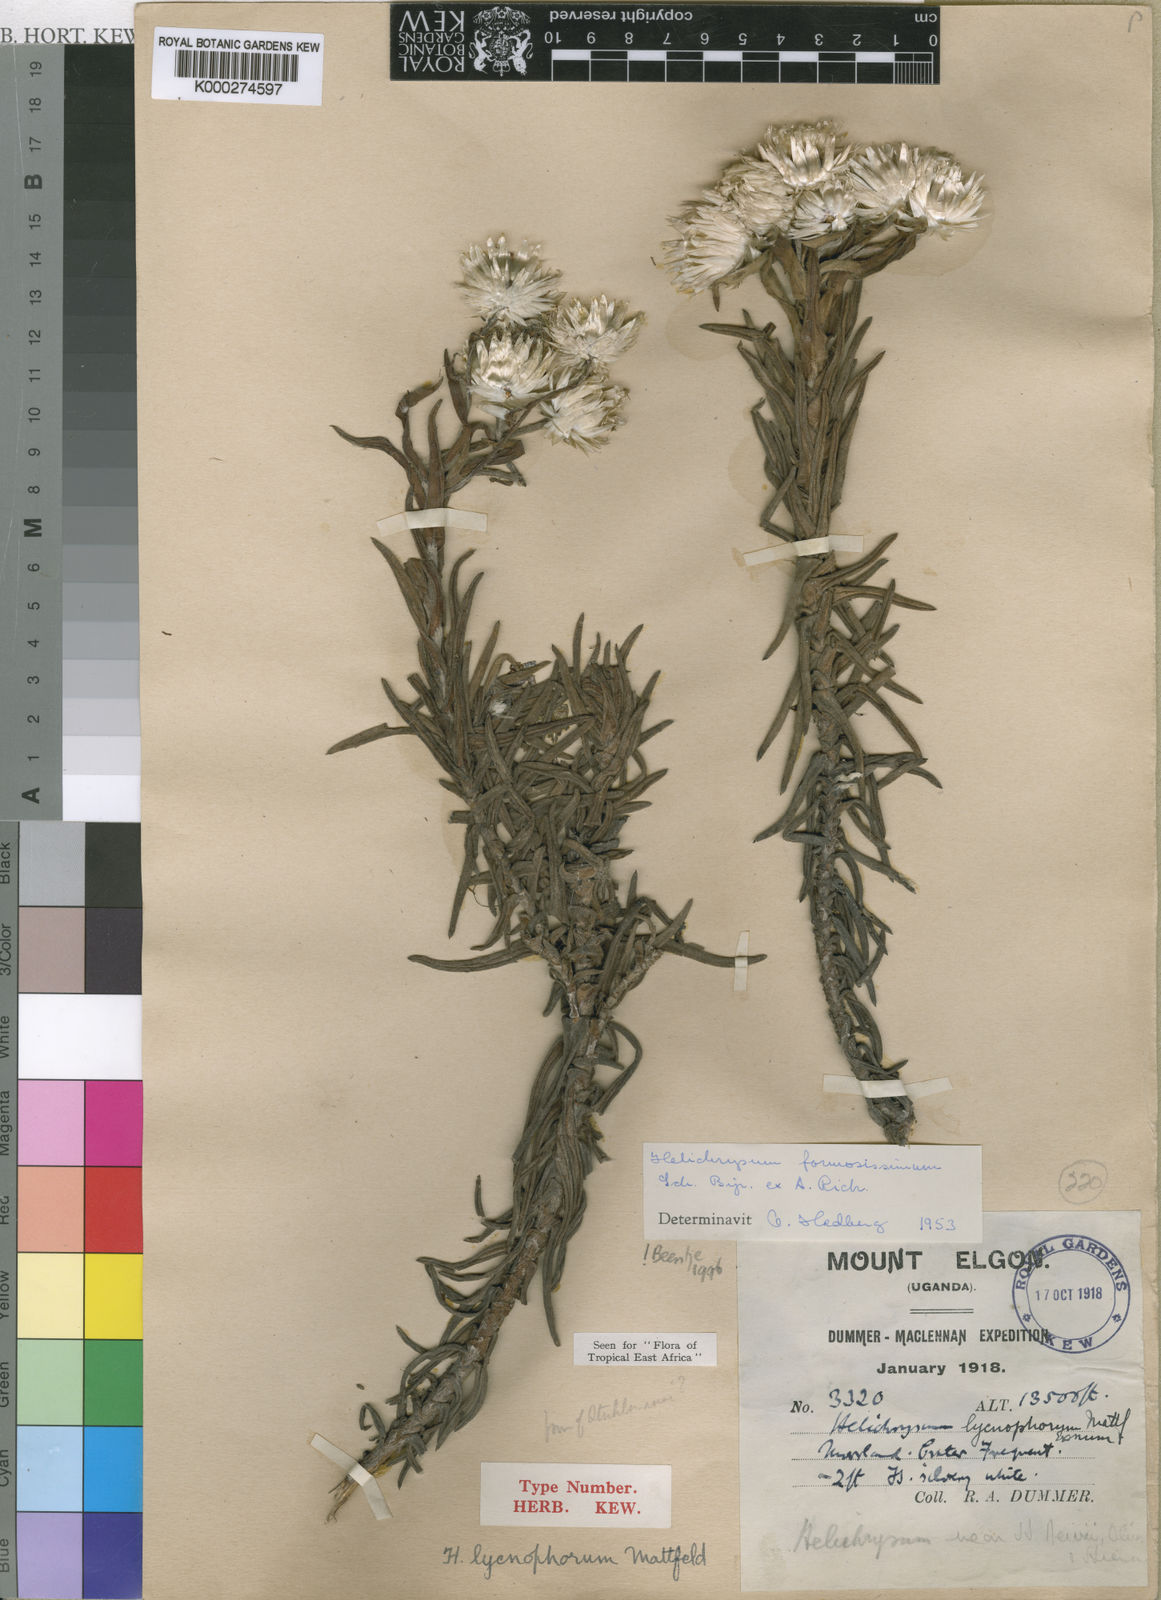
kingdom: Plantae
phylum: Tracheophyta
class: Magnoliopsida
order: Asterales
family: Asteraceae
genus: Helichrysum
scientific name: Helichrysum
